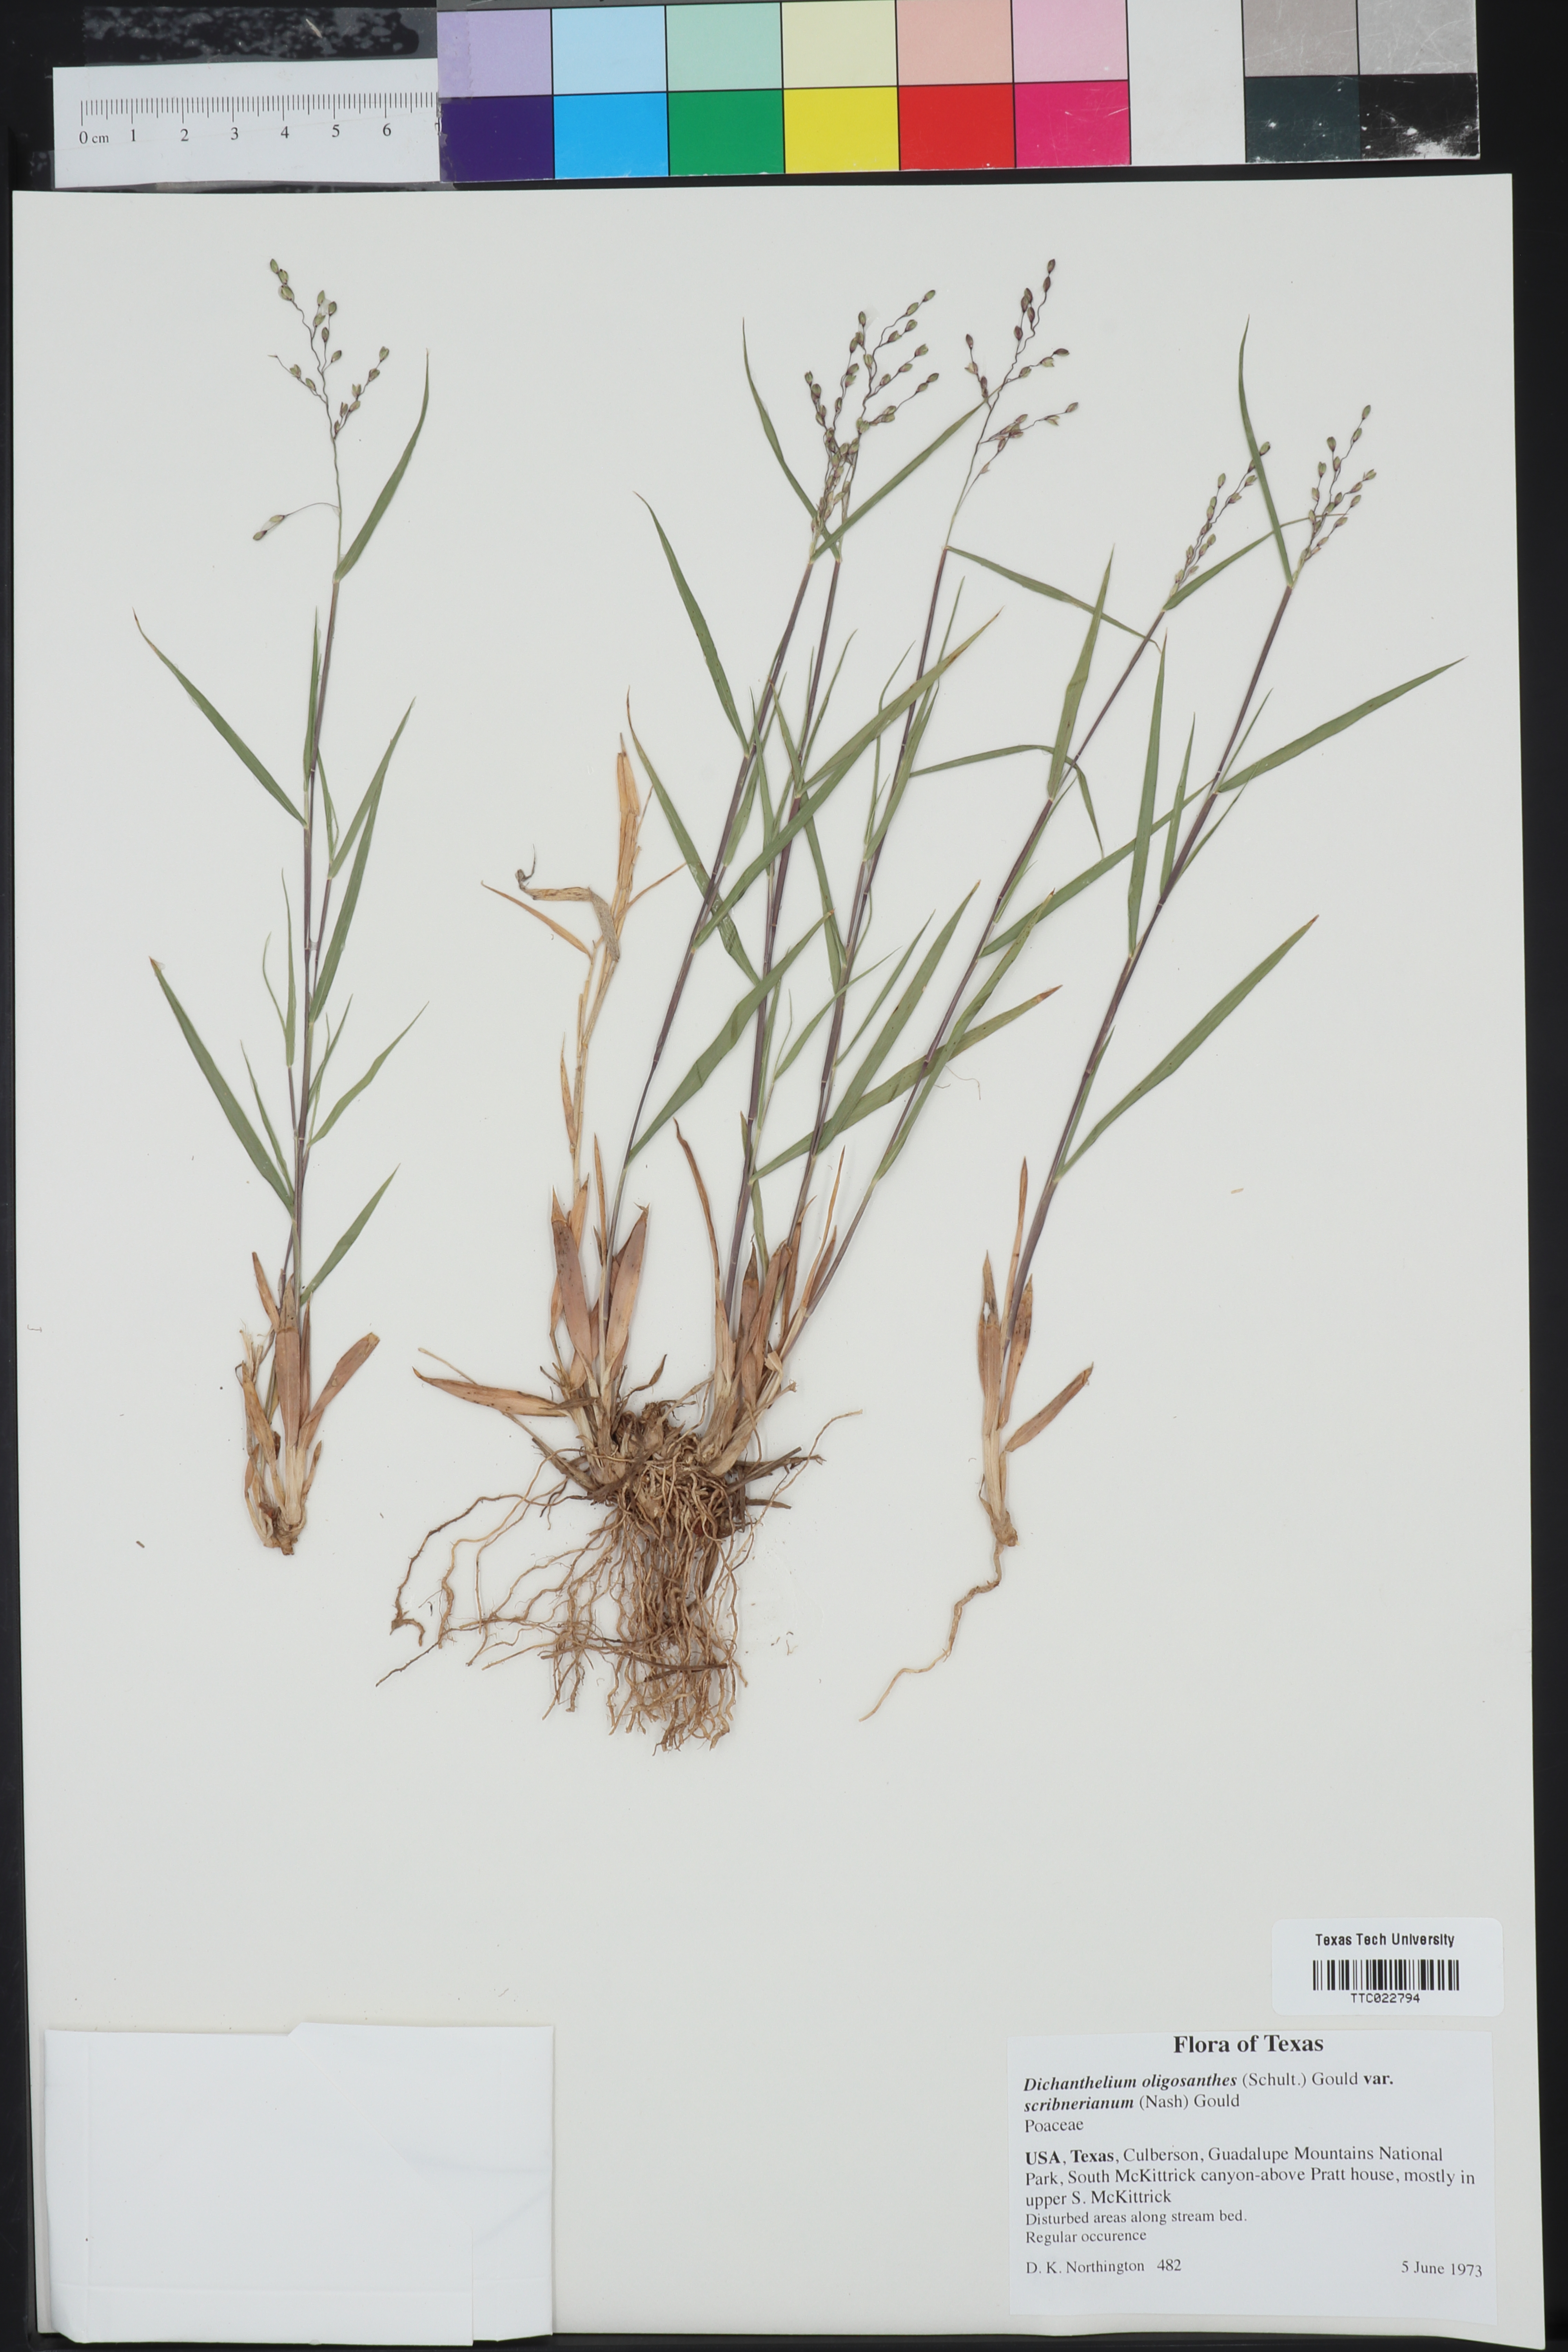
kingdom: Plantae
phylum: Tracheophyta
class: Liliopsida
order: Poales
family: Poaceae
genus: Dichanthelium
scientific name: Dichanthelium scribnerianum
